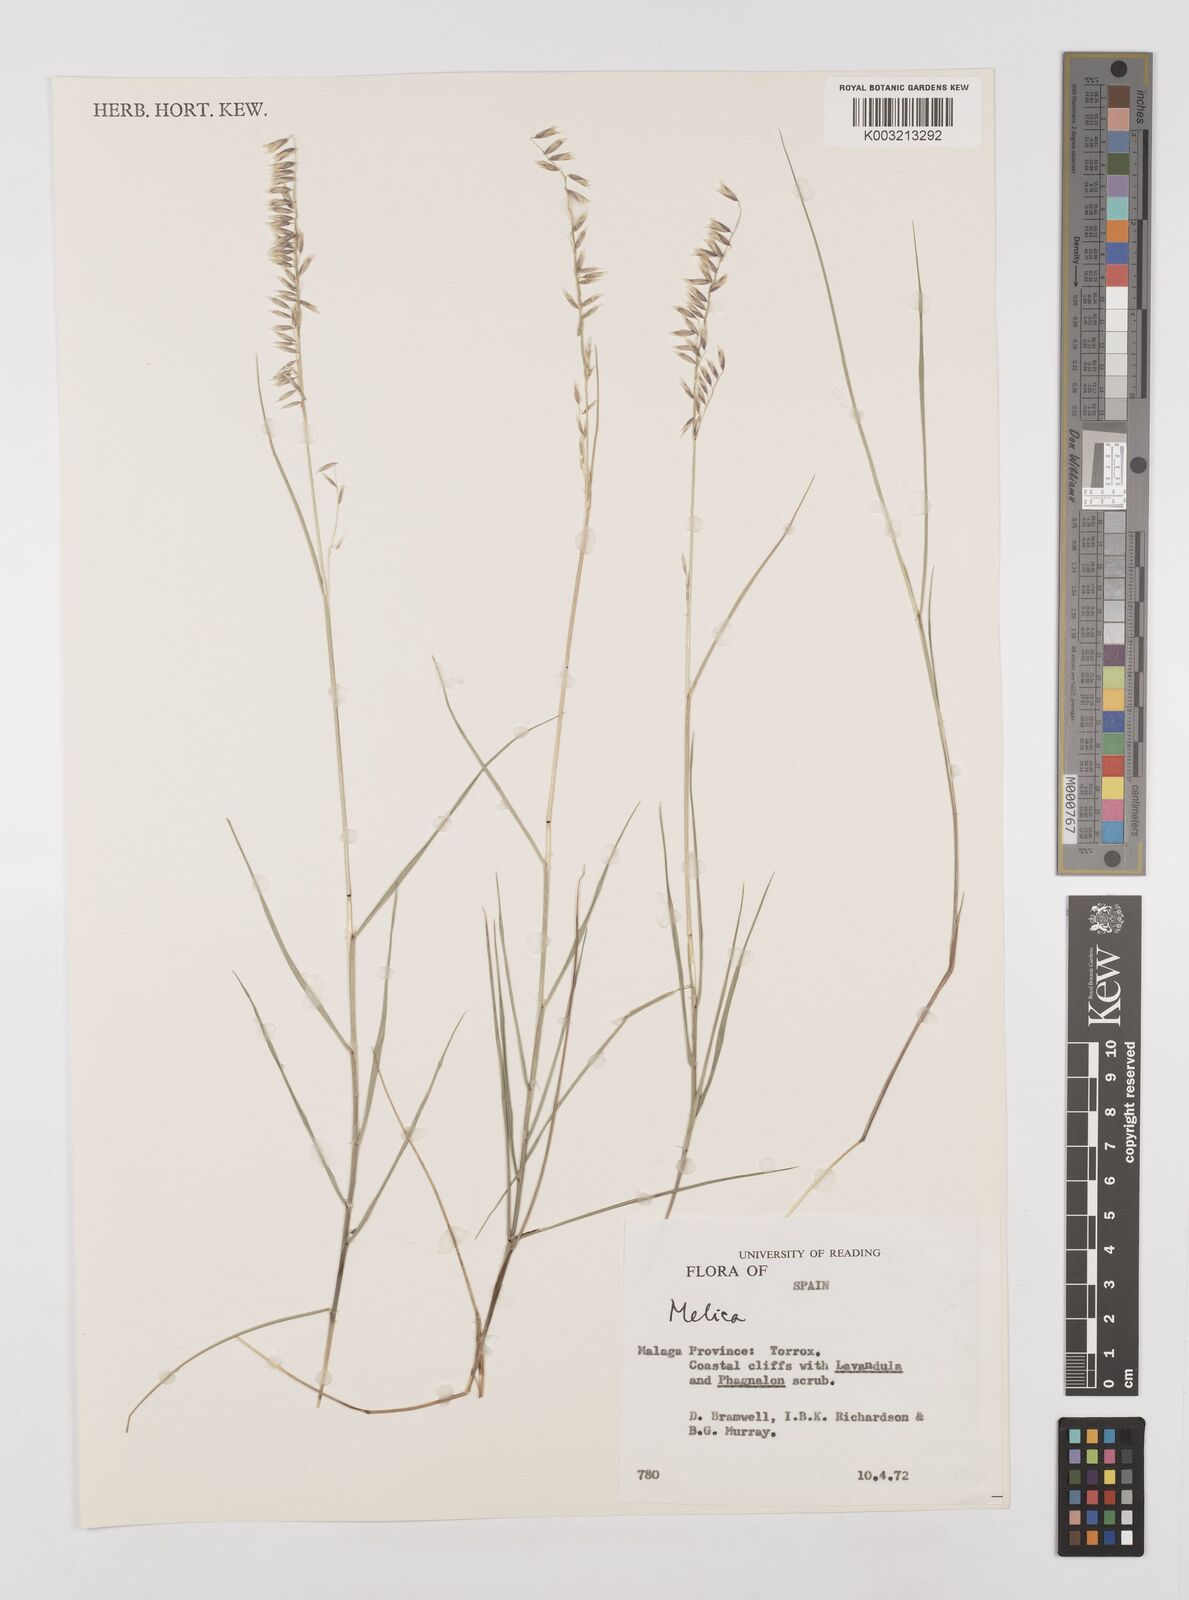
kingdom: Plantae
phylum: Tracheophyta
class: Liliopsida
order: Poales
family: Poaceae
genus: Melica
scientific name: Melica
